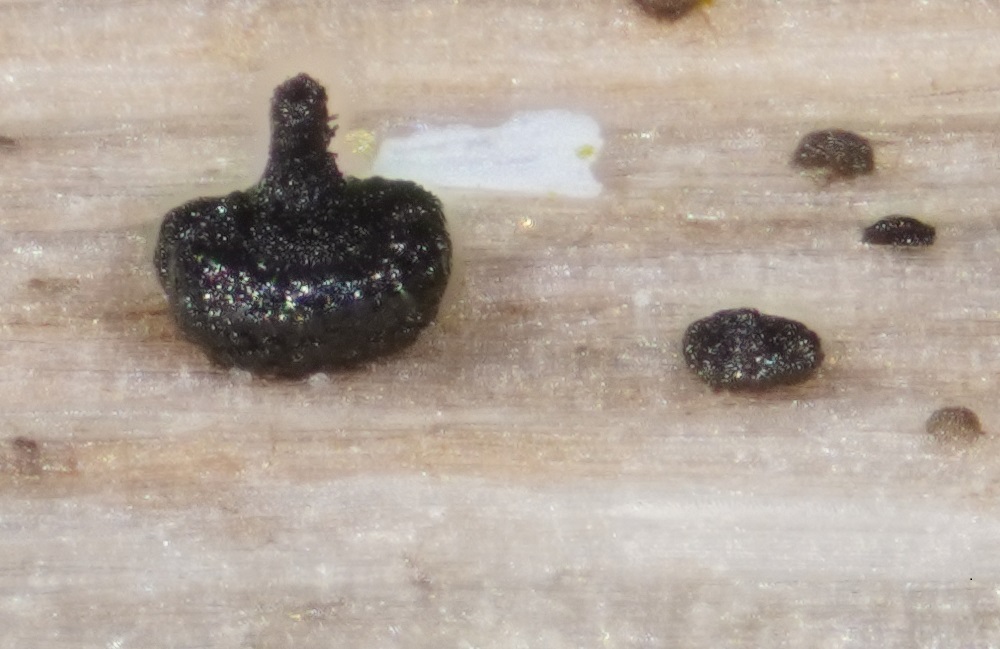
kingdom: Fungi
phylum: Ascomycota
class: Dothideomycetes
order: Pleosporales
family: Didymellaceae
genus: Phoma
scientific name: Phoma
